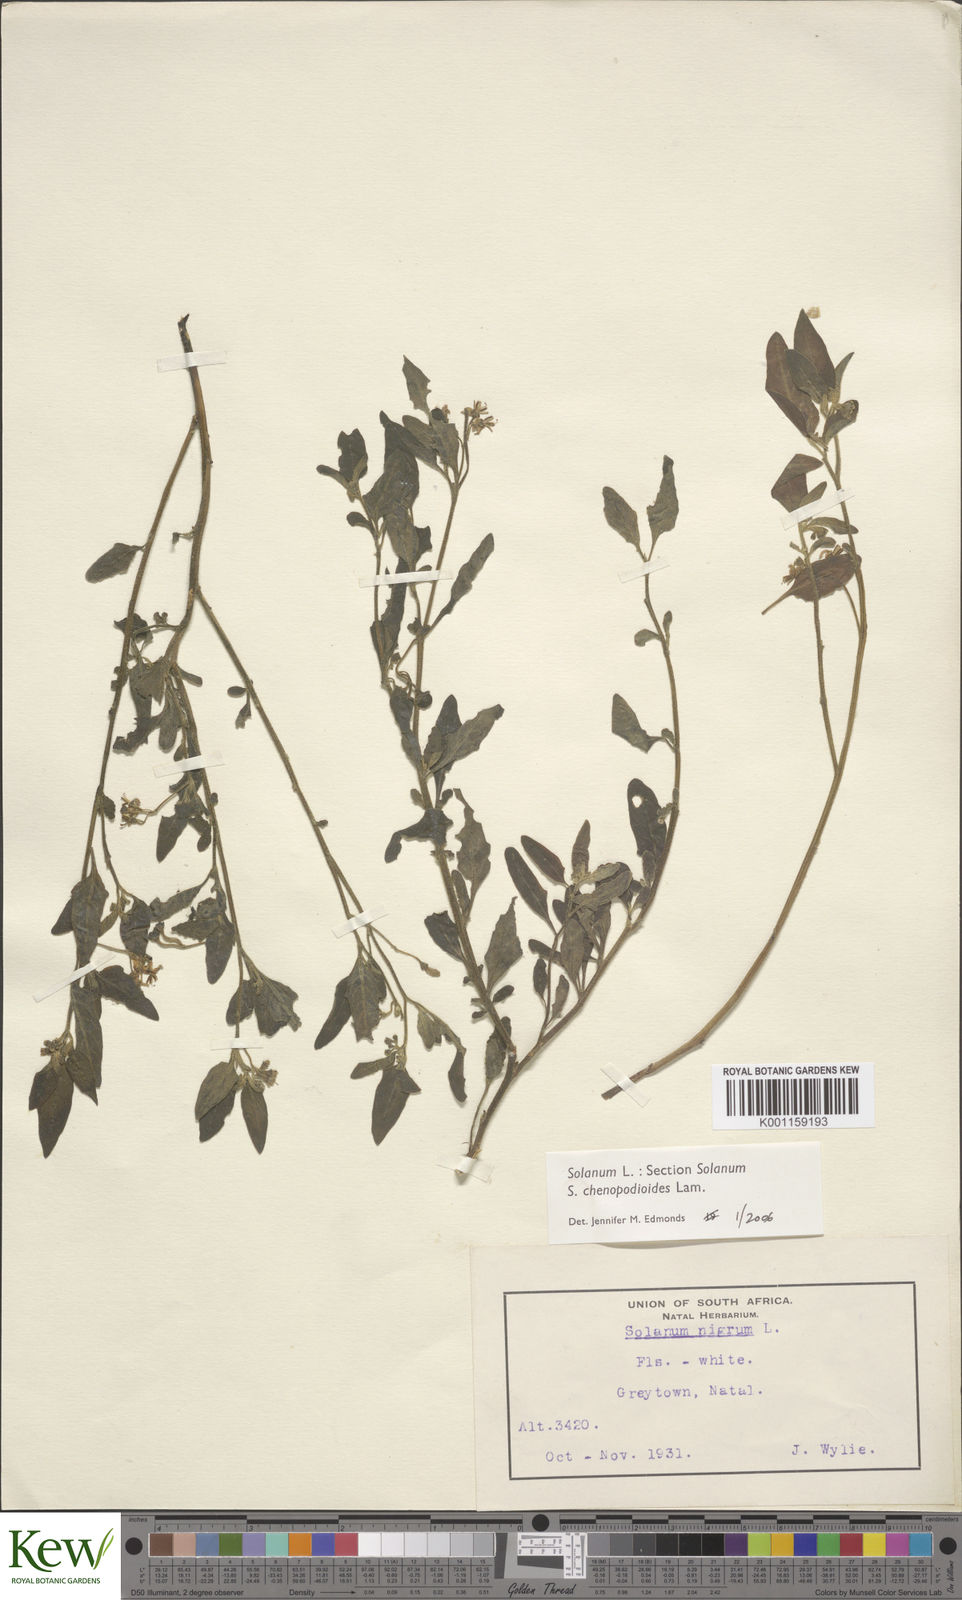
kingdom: Plantae
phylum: Tracheophyta
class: Magnoliopsida
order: Solanales
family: Solanaceae
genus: Solanum
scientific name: Solanum chenopodioides
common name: Tall nightshade
